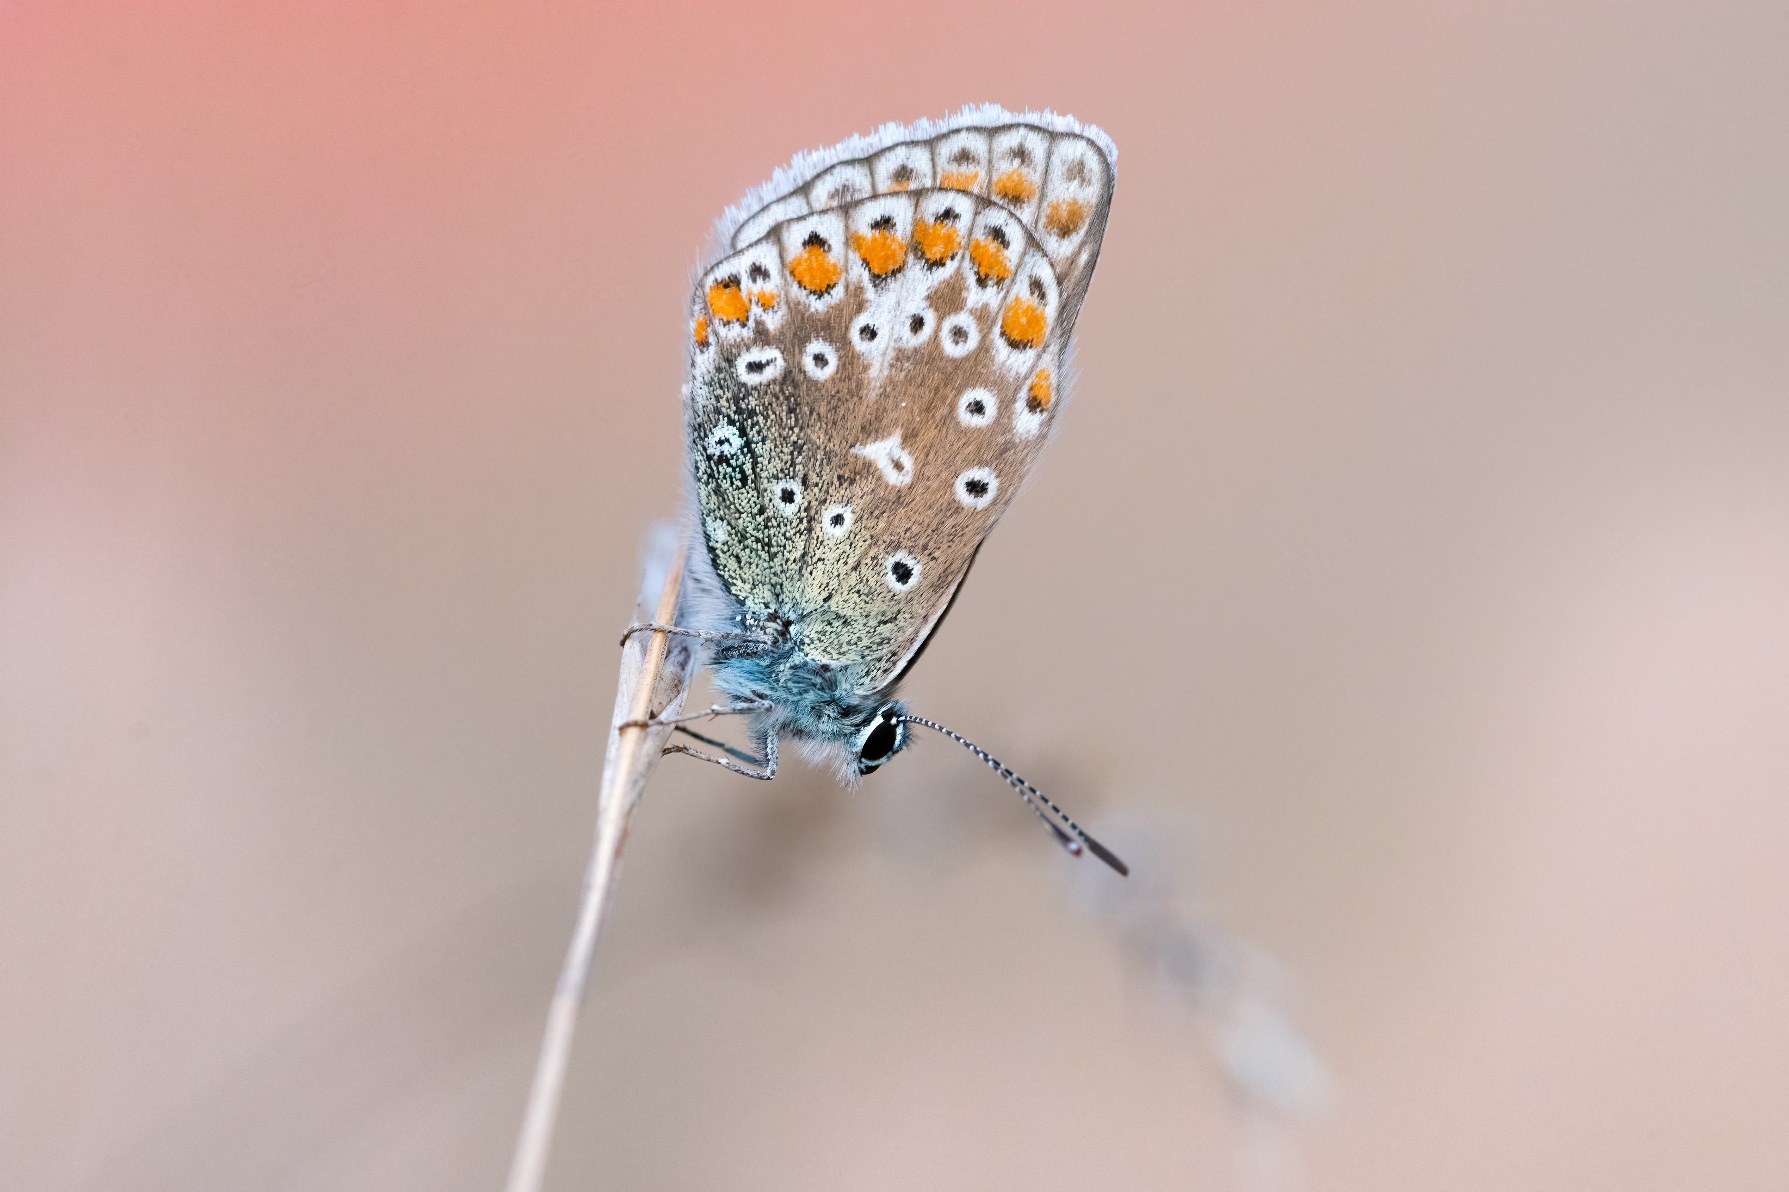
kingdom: Animalia
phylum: Arthropoda
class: Insecta
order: Lepidoptera
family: Lycaenidae
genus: Polyommatus
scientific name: Polyommatus icarus
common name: Almindelig blåfugl
